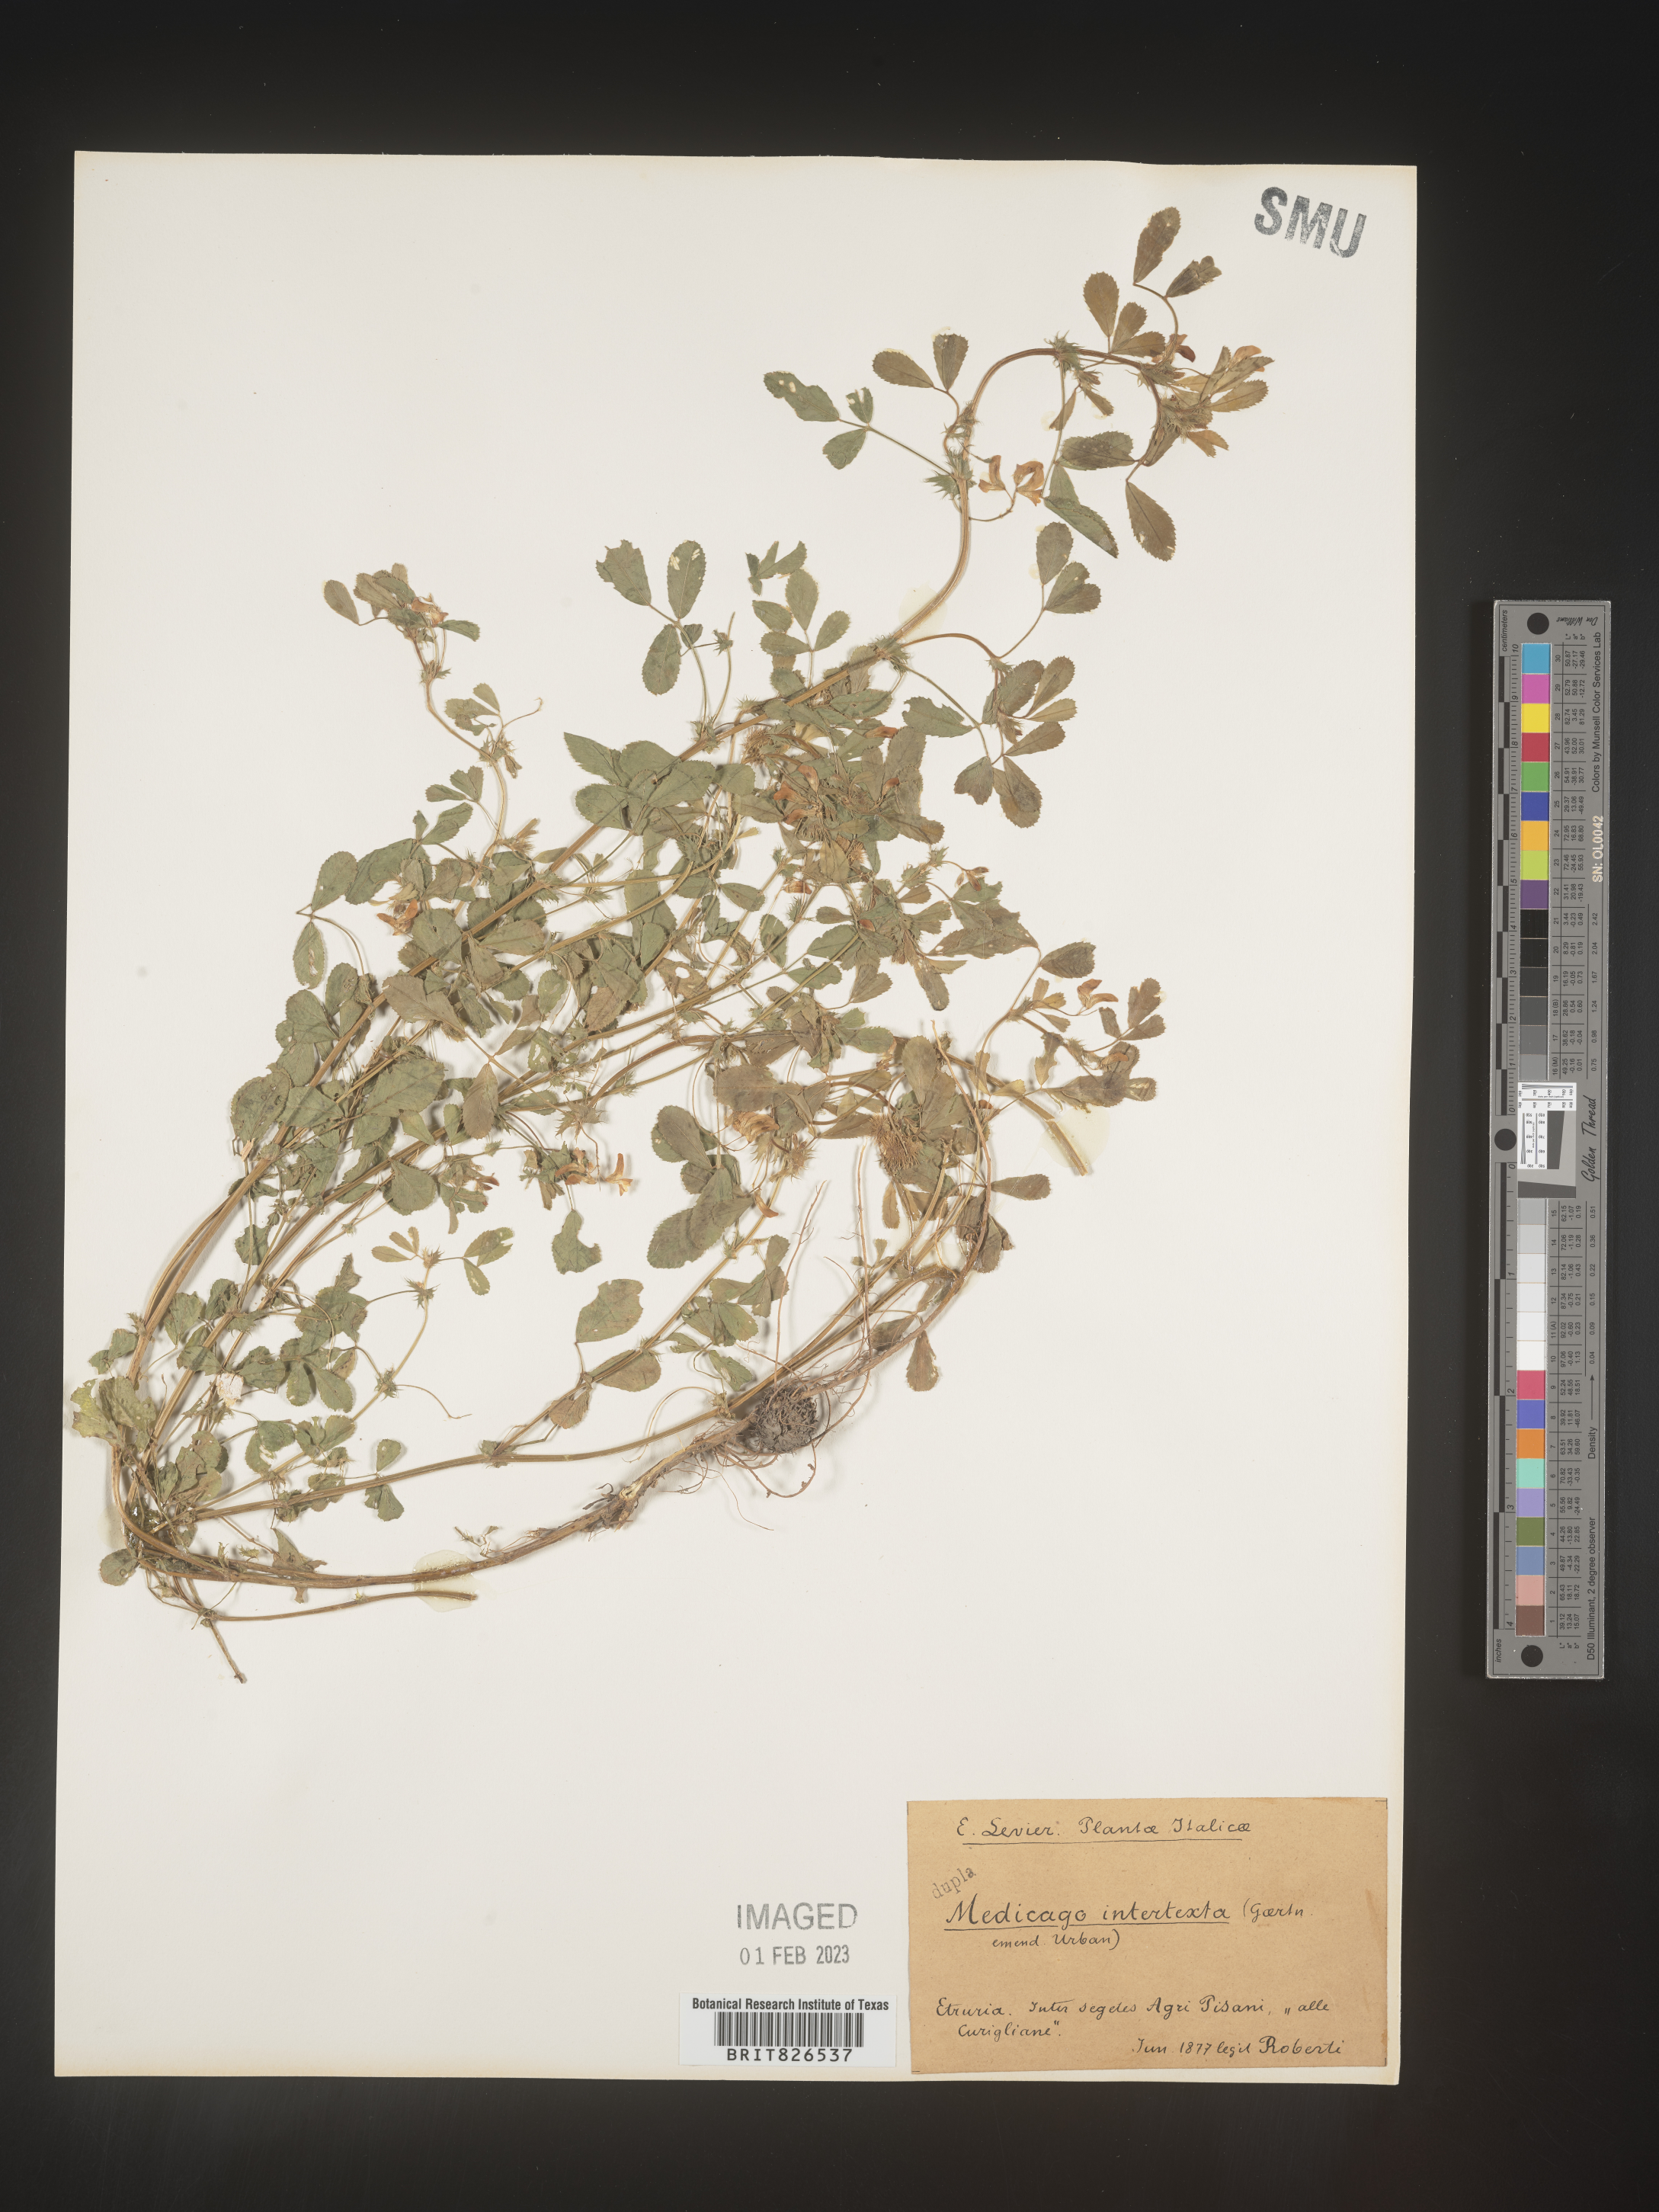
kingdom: Plantae
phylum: Tracheophyta
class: Magnoliopsida
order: Fabales
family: Fabaceae
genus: Medicago
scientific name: Medicago
